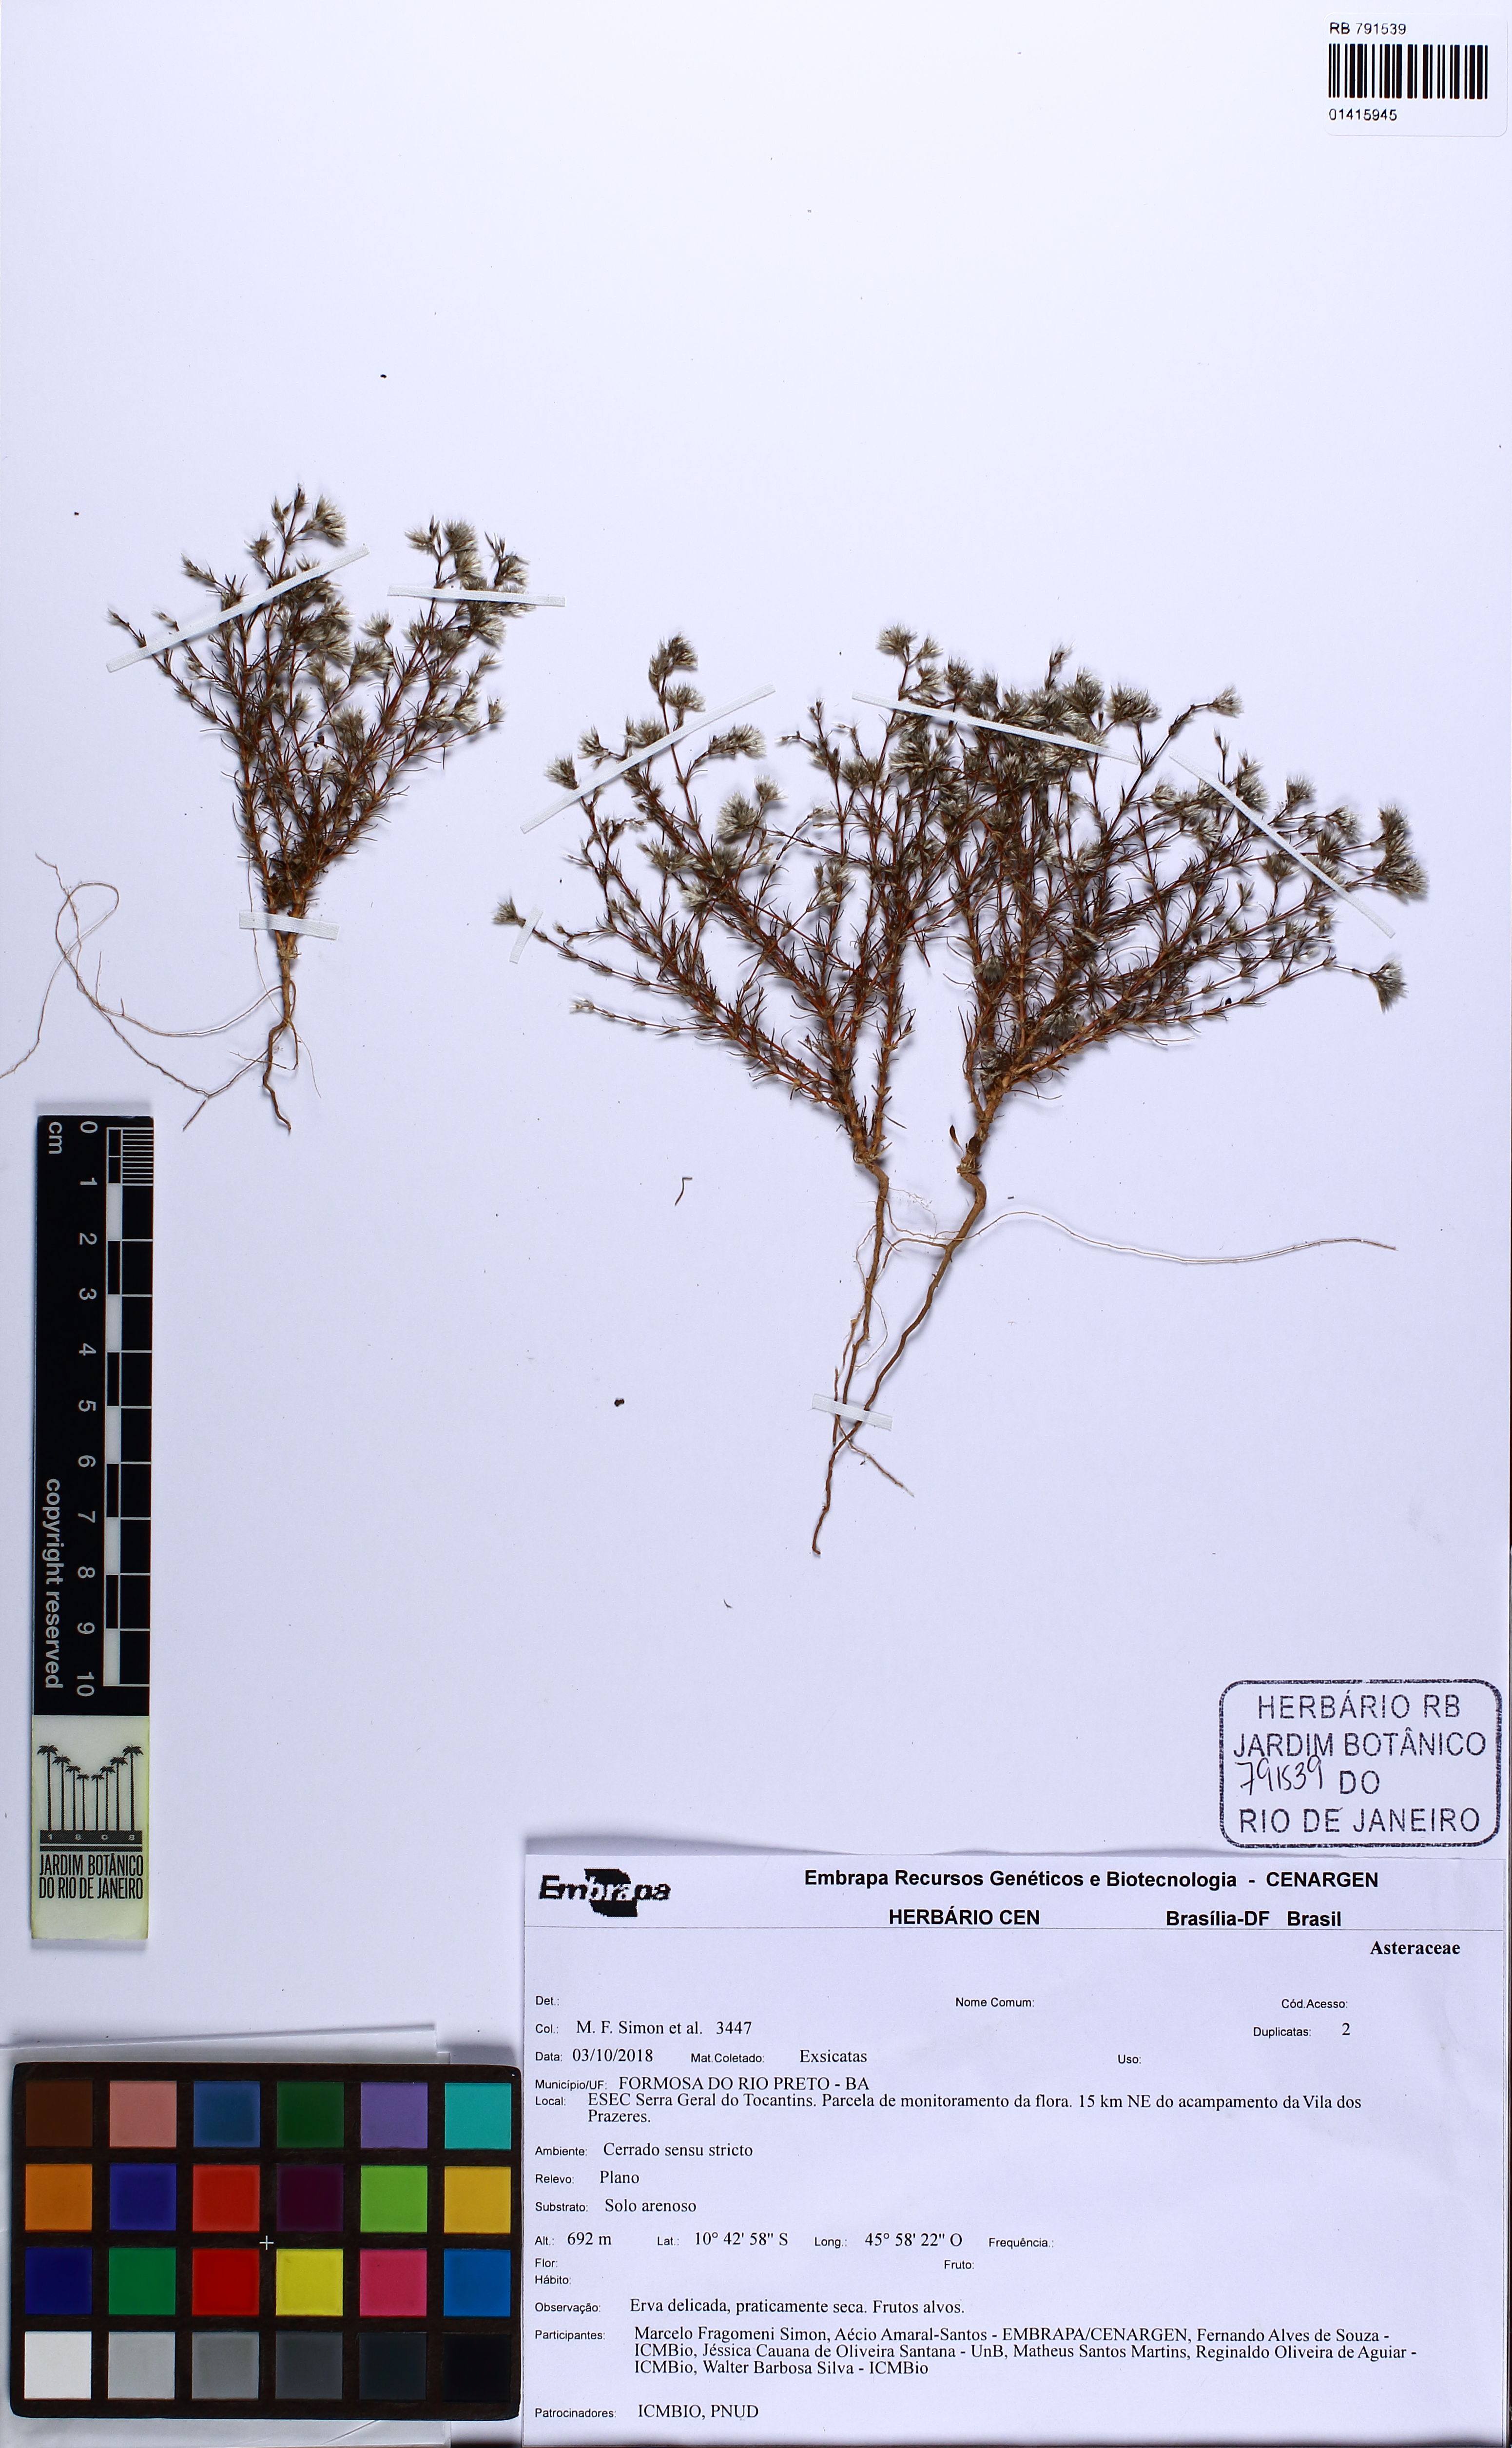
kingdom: Plantae
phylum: Tracheophyta
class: Magnoliopsida
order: Asterales
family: Asteraceae
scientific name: Asteraceae
